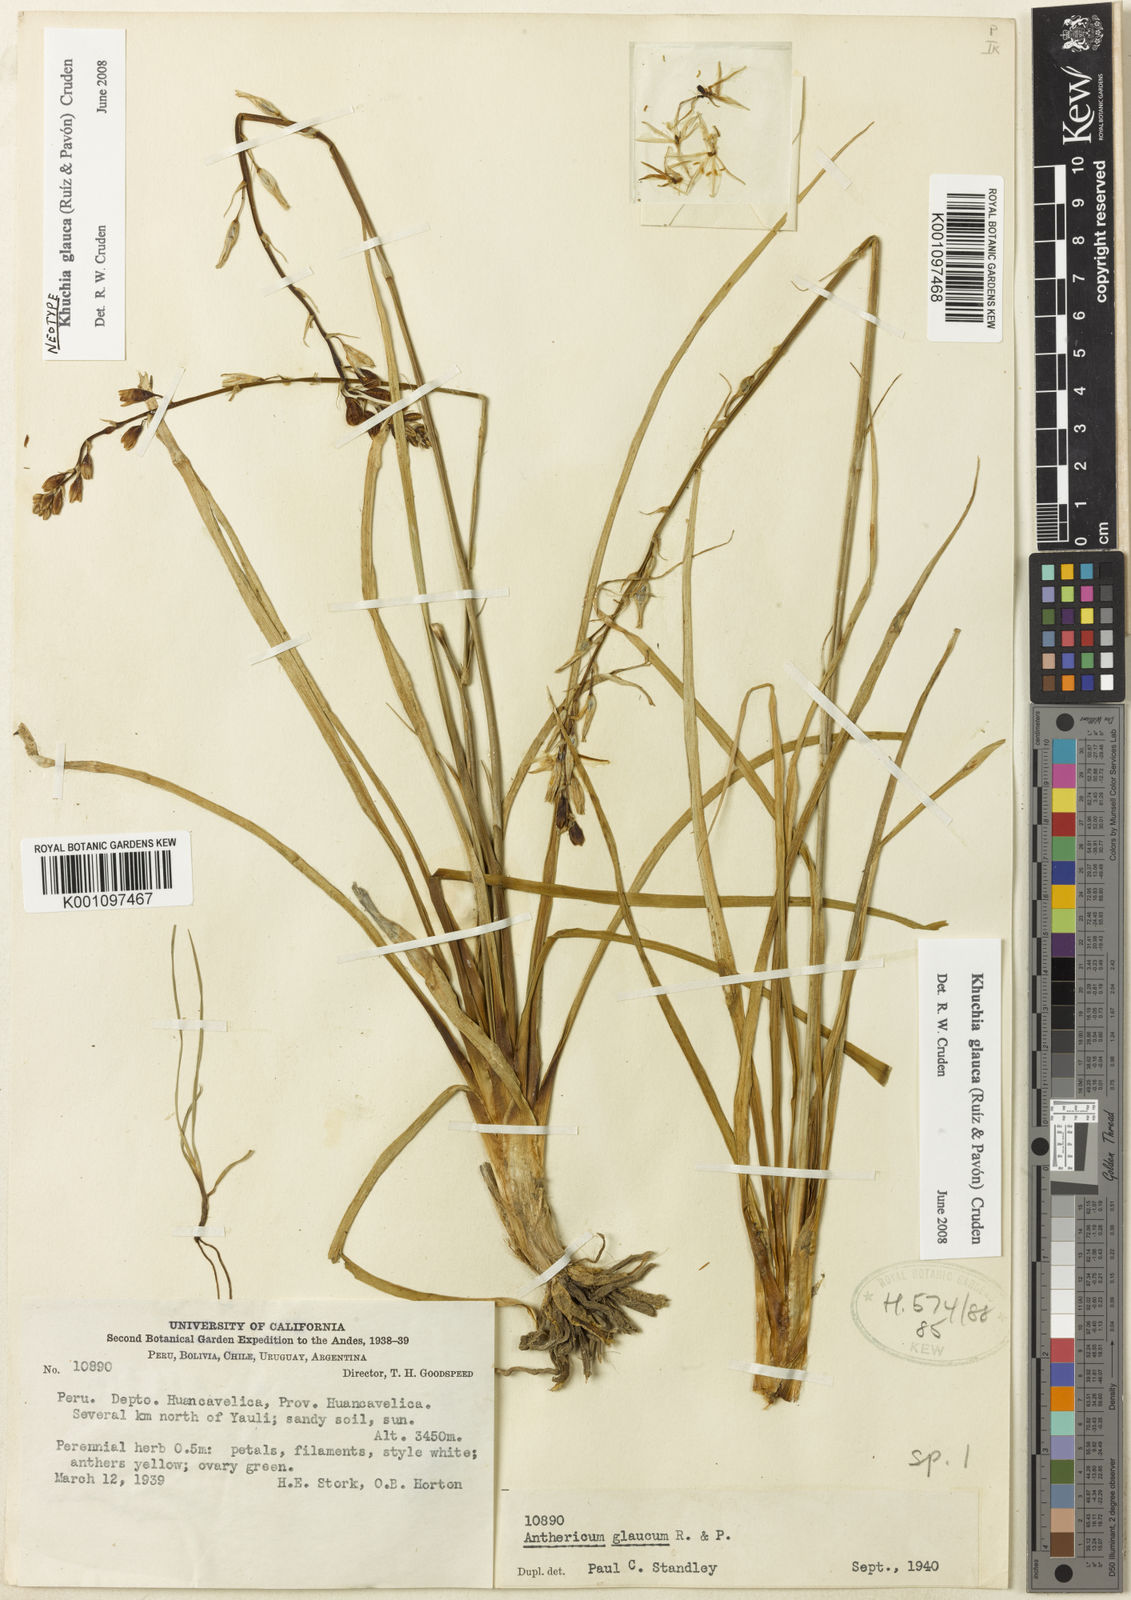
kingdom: Plantae
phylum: Tracheophyta
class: Liliopsida
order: Asparagales
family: Asparagaceae
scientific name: Asparagaceae
